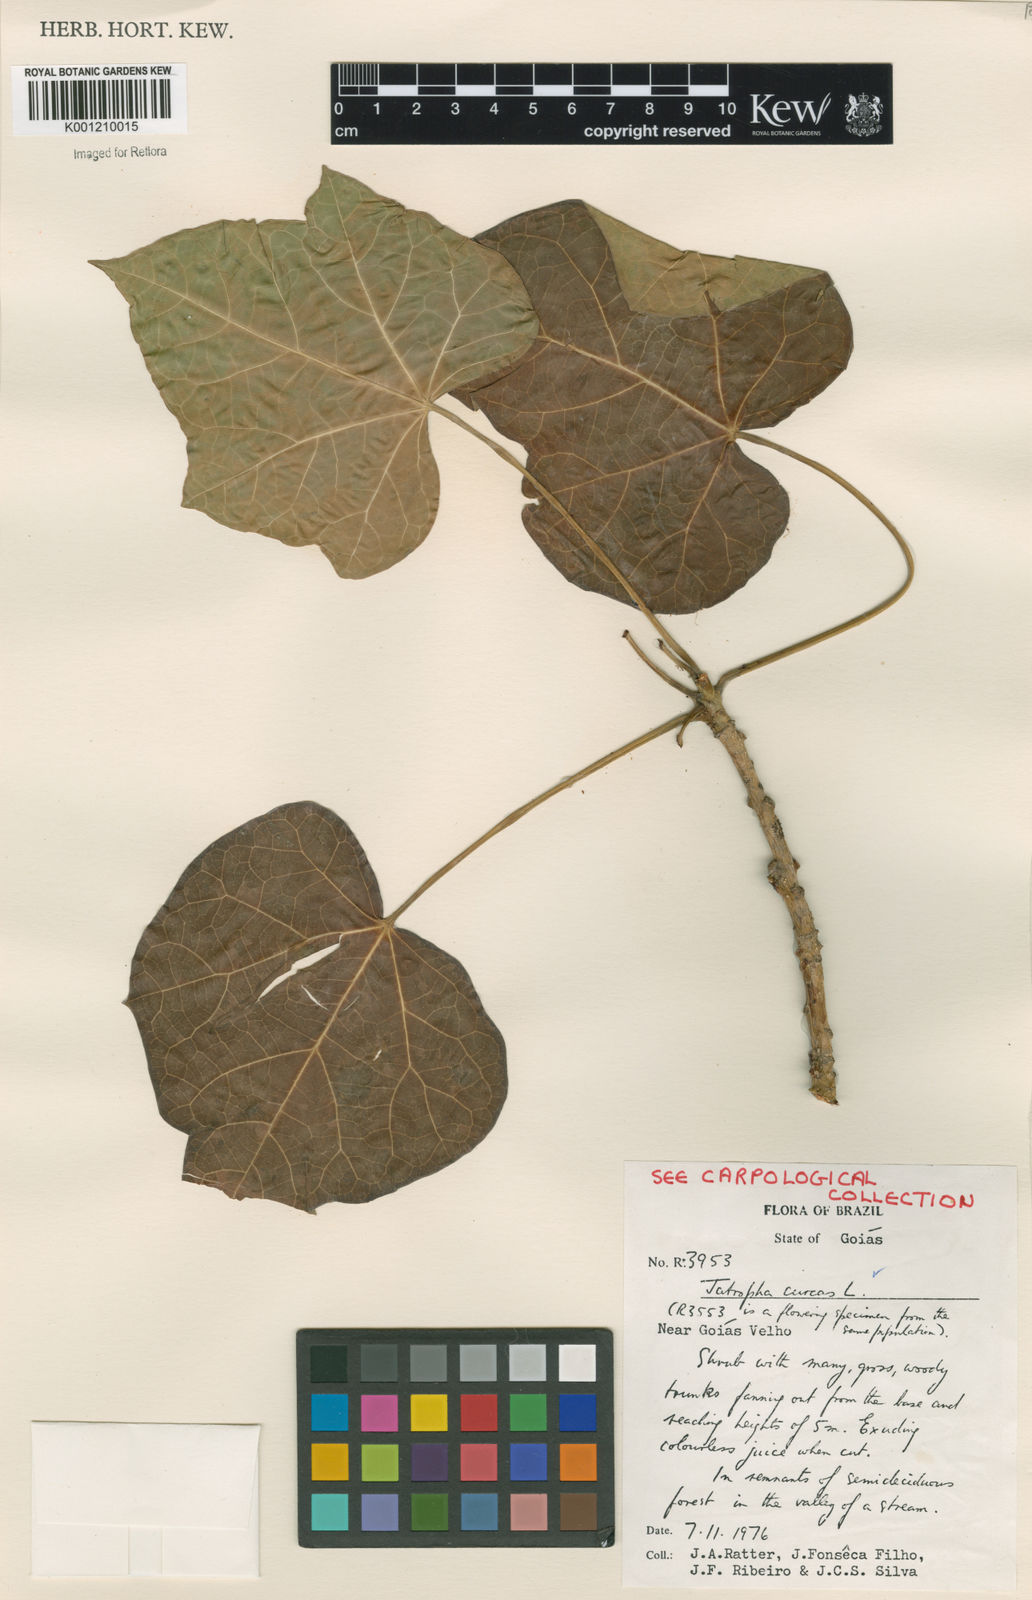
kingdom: Plantae
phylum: Tracheophyta
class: Magnoliopsida
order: Malpighiales
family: Euphorbiaceae
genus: Jatropha
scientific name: Jatropha curcas
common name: Barbados nut
